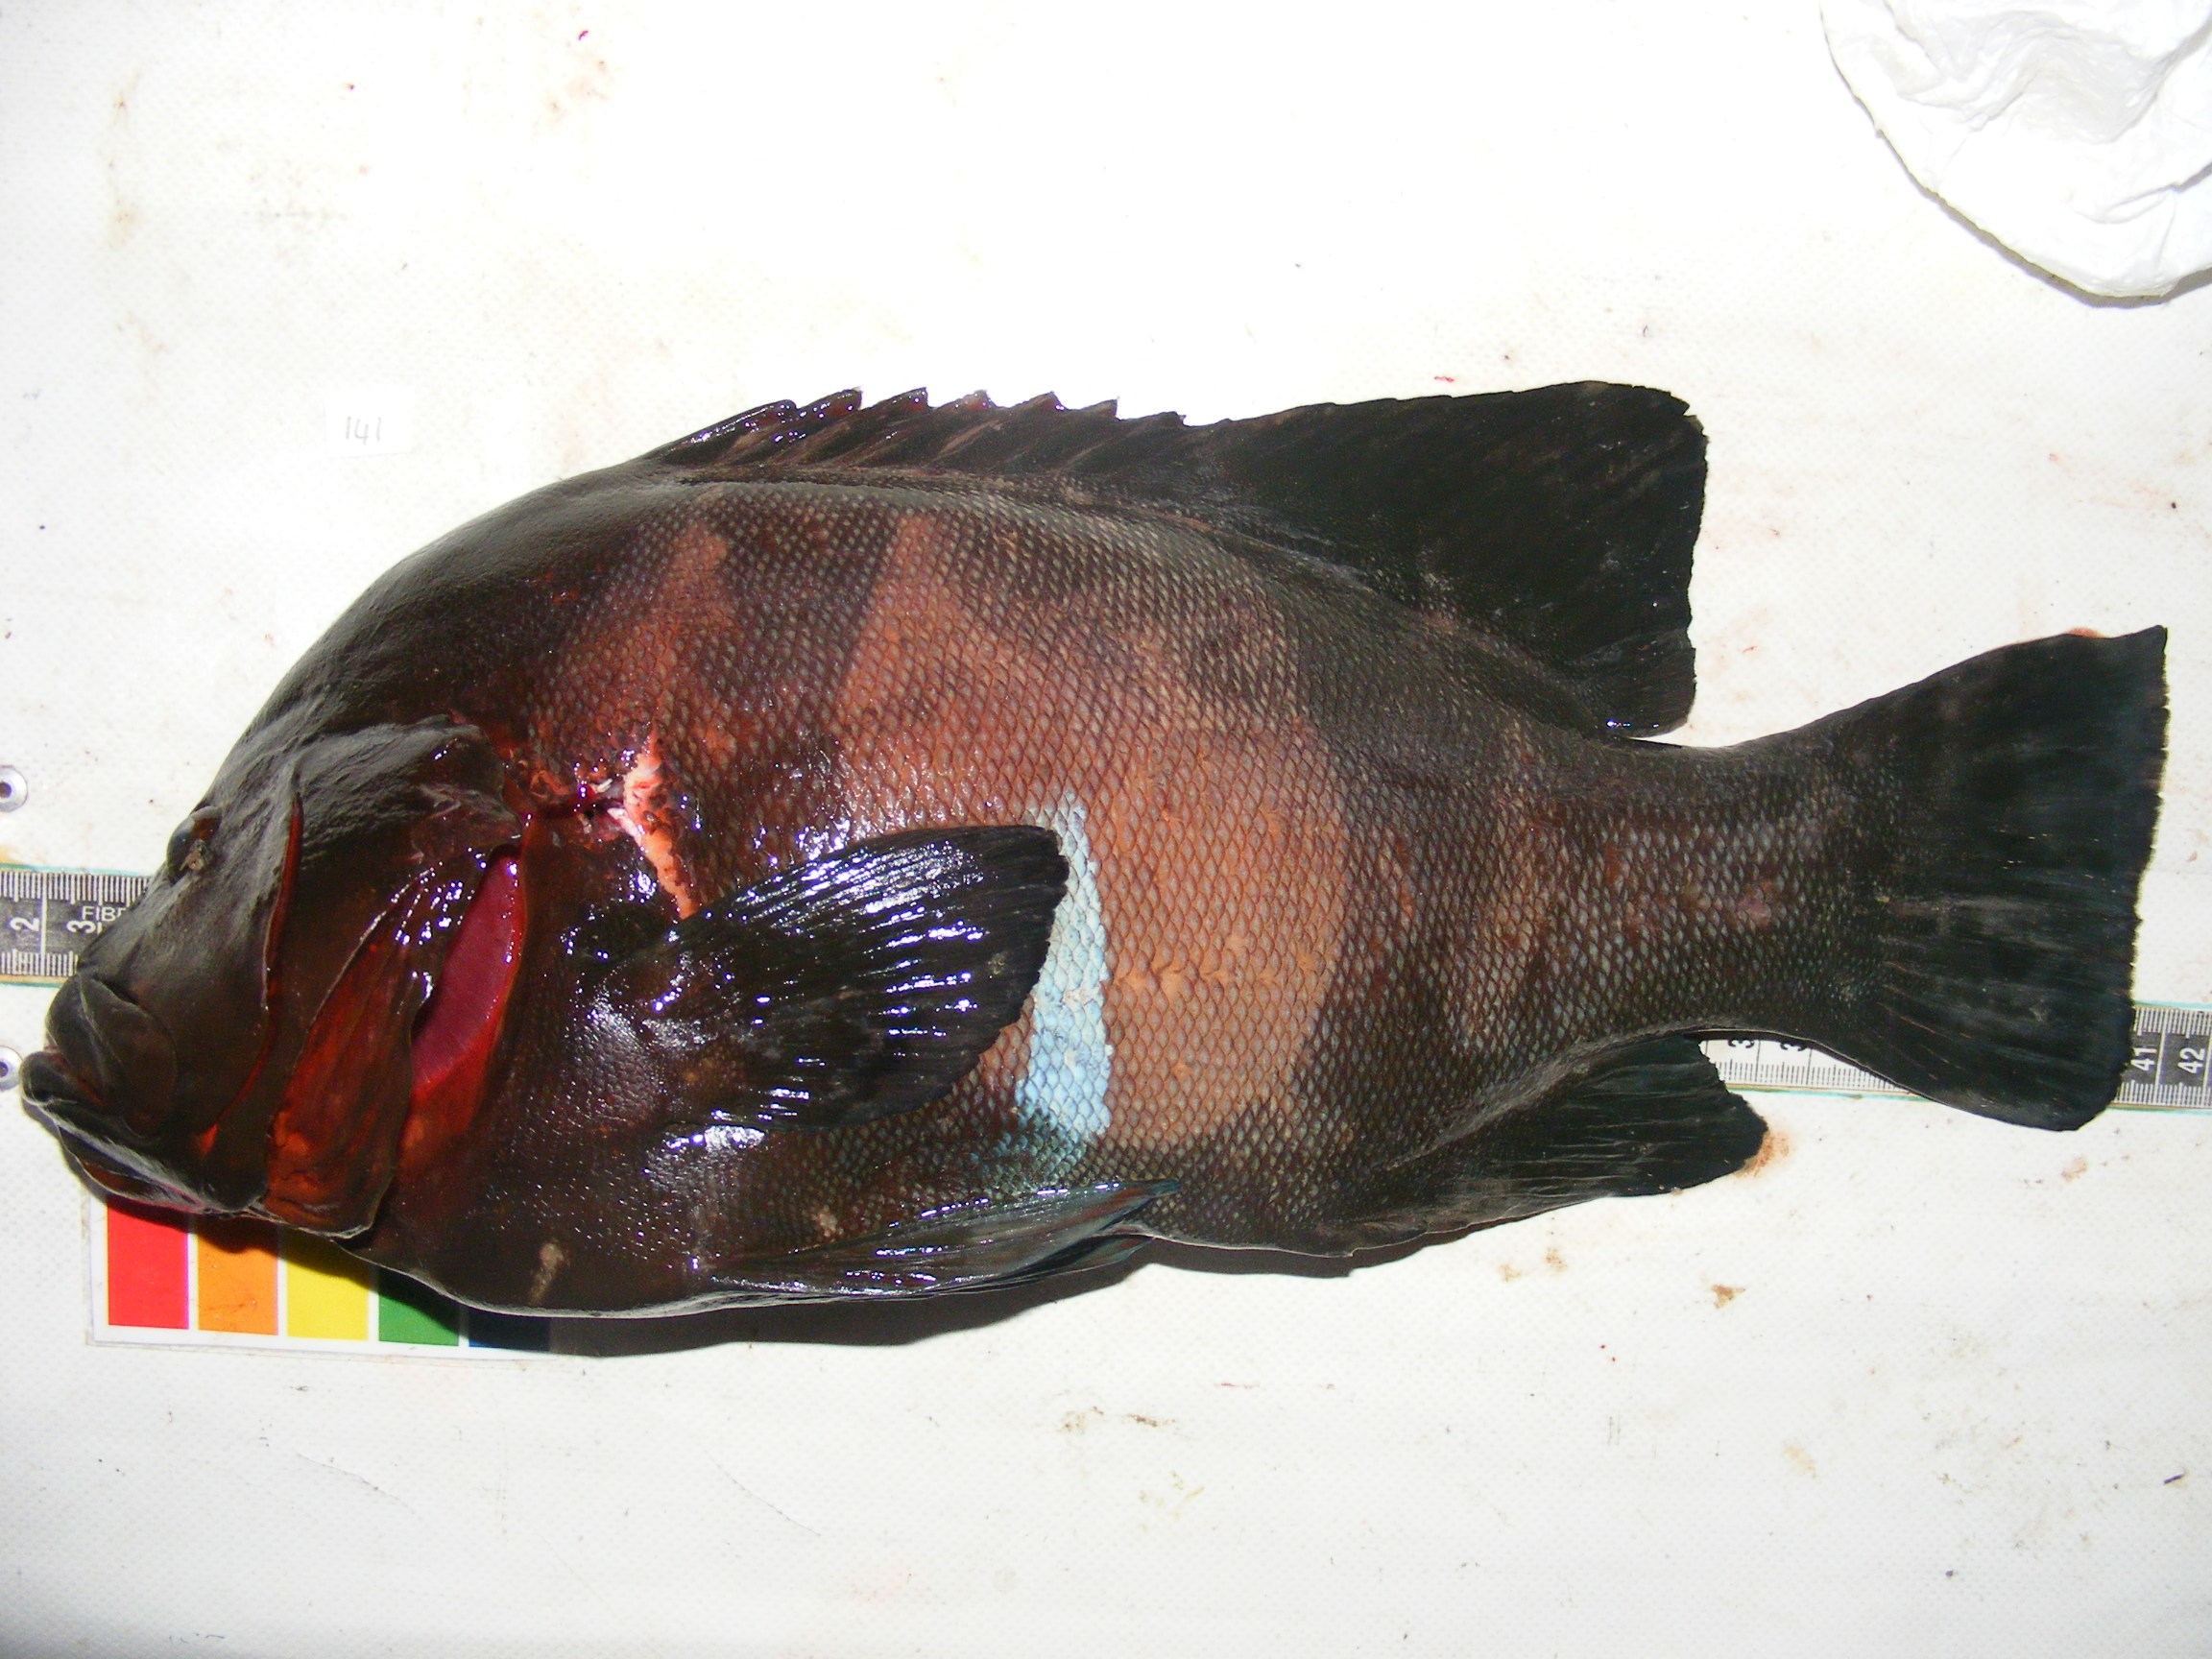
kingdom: Animalia
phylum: Chordata
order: Perciformes
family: Serranidae
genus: Aethaloperca
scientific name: Aethaloperca rogaa
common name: Redmouth grouper
